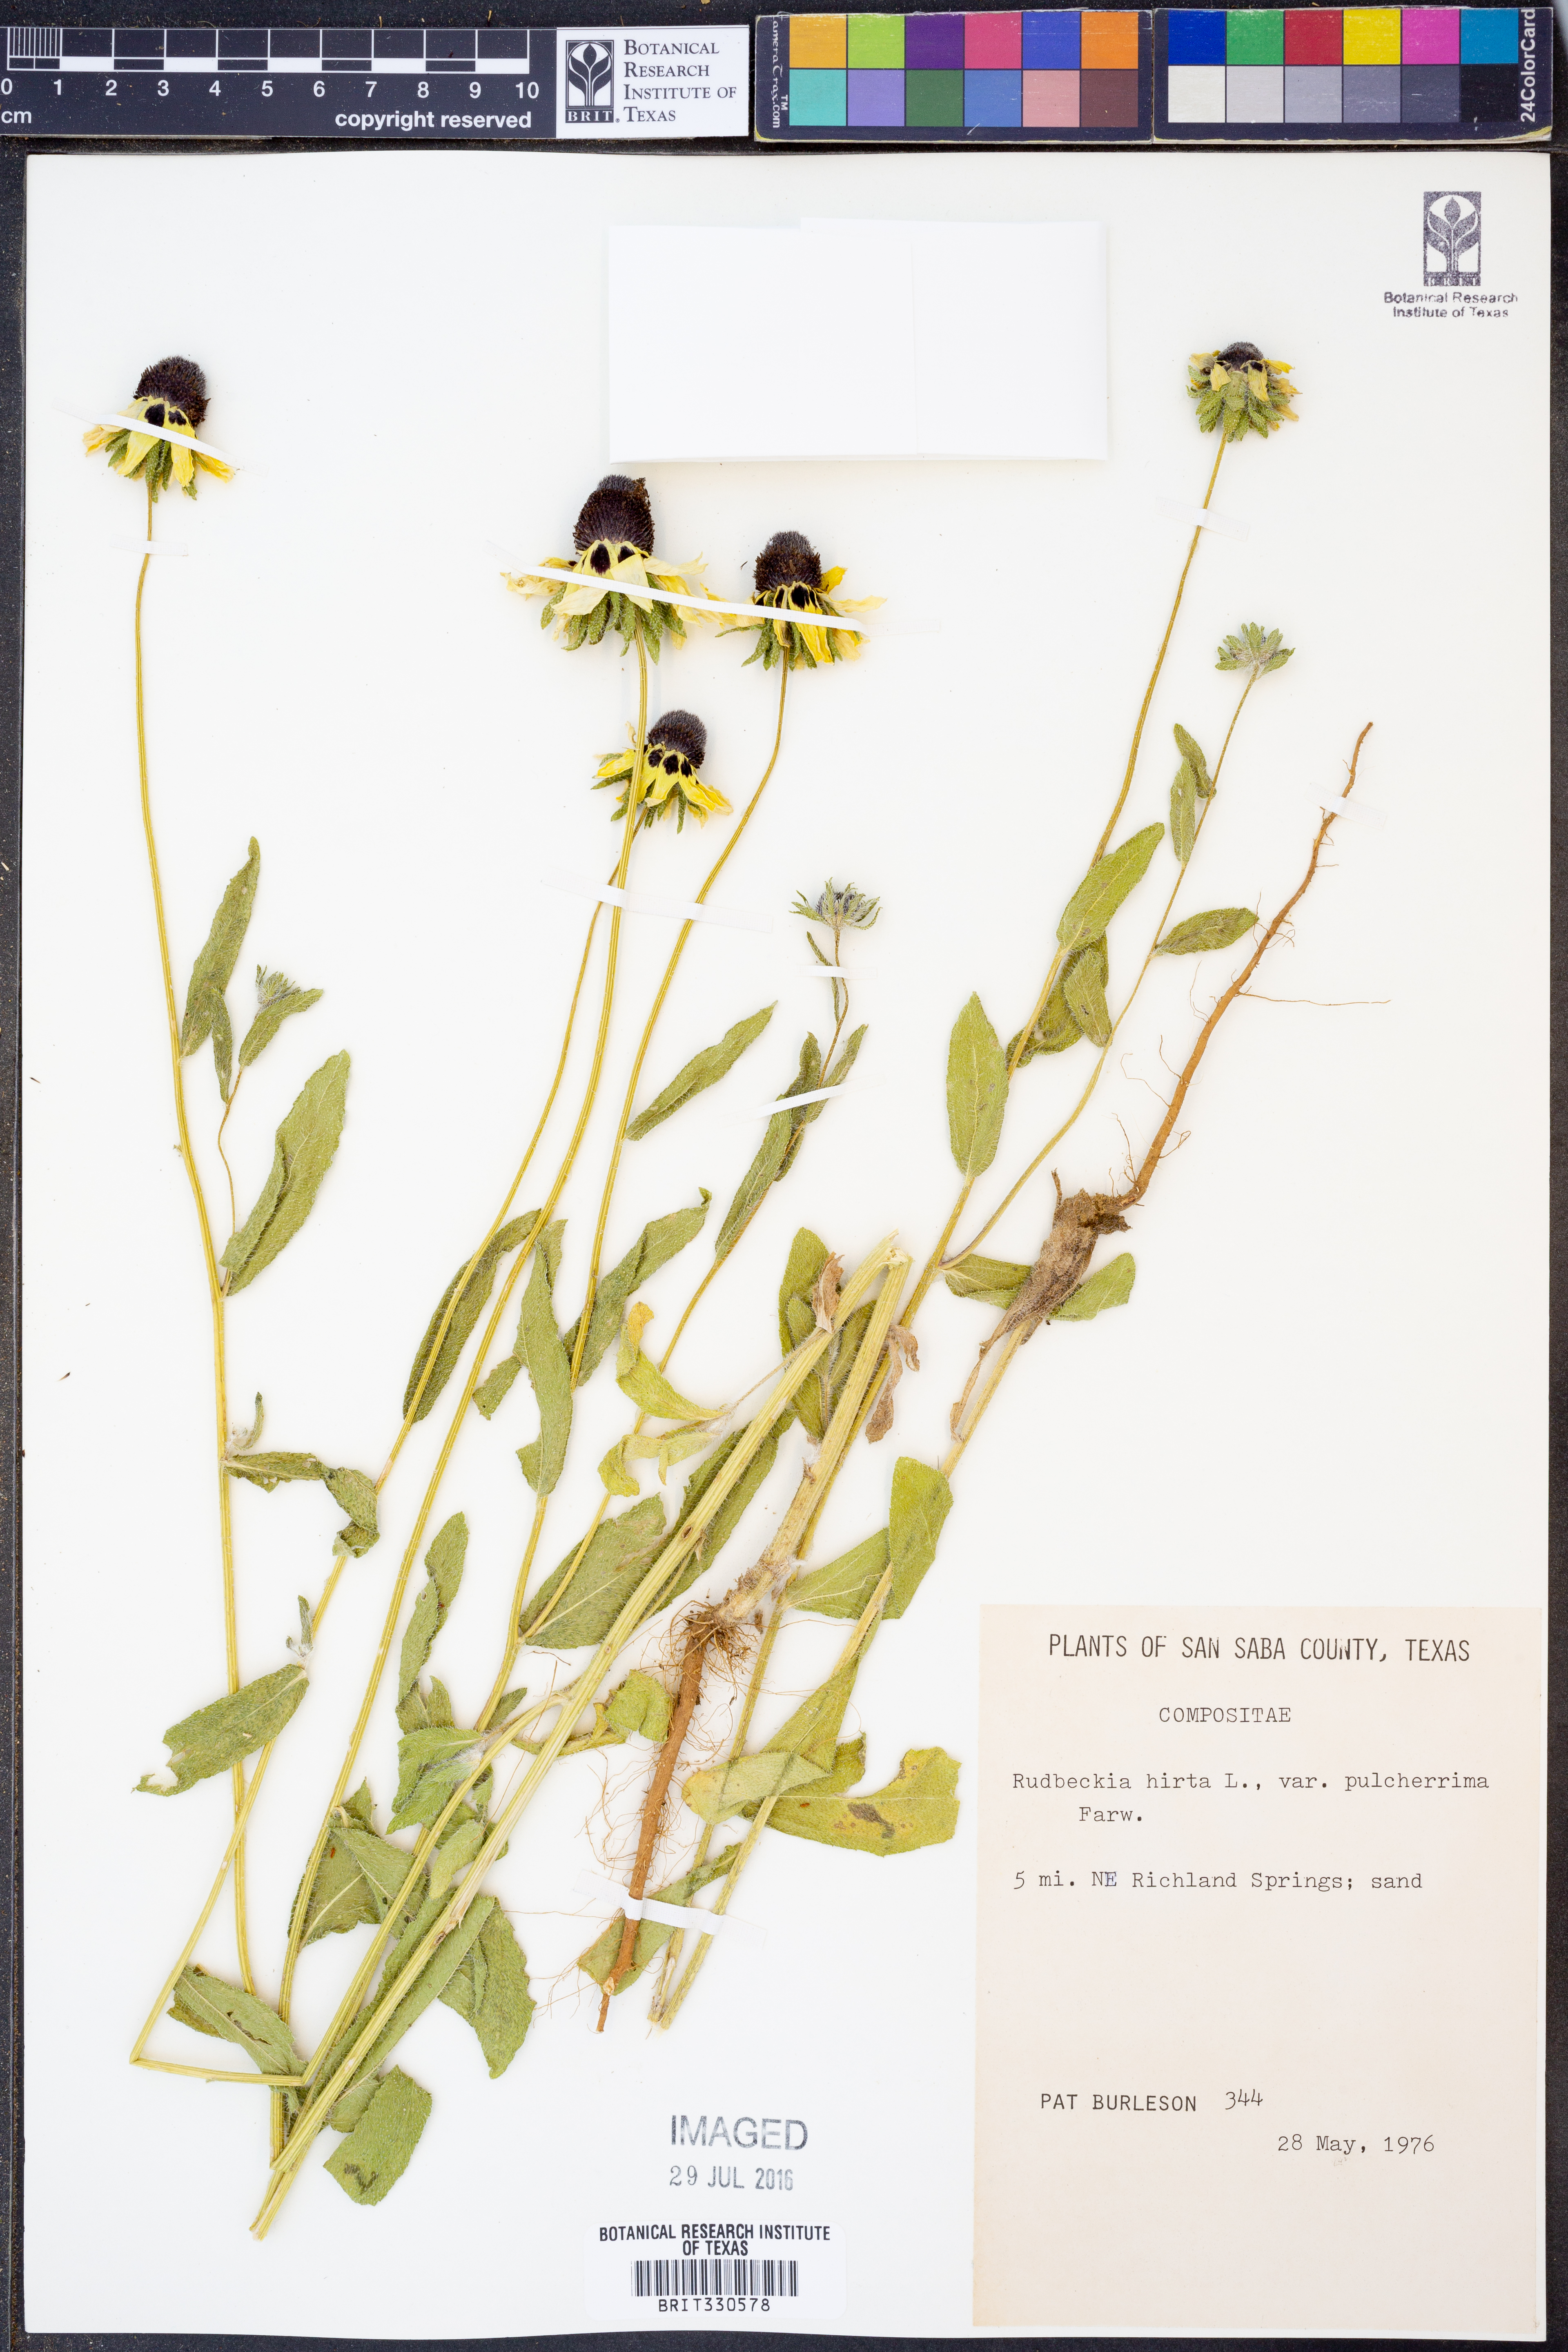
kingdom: Plantae
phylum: Tracheophyta
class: Magnoliopsida
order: Asterales
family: Asteraceae
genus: Rudbeckia
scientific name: Rudbeckia hirta
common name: Black-eyed-susan
